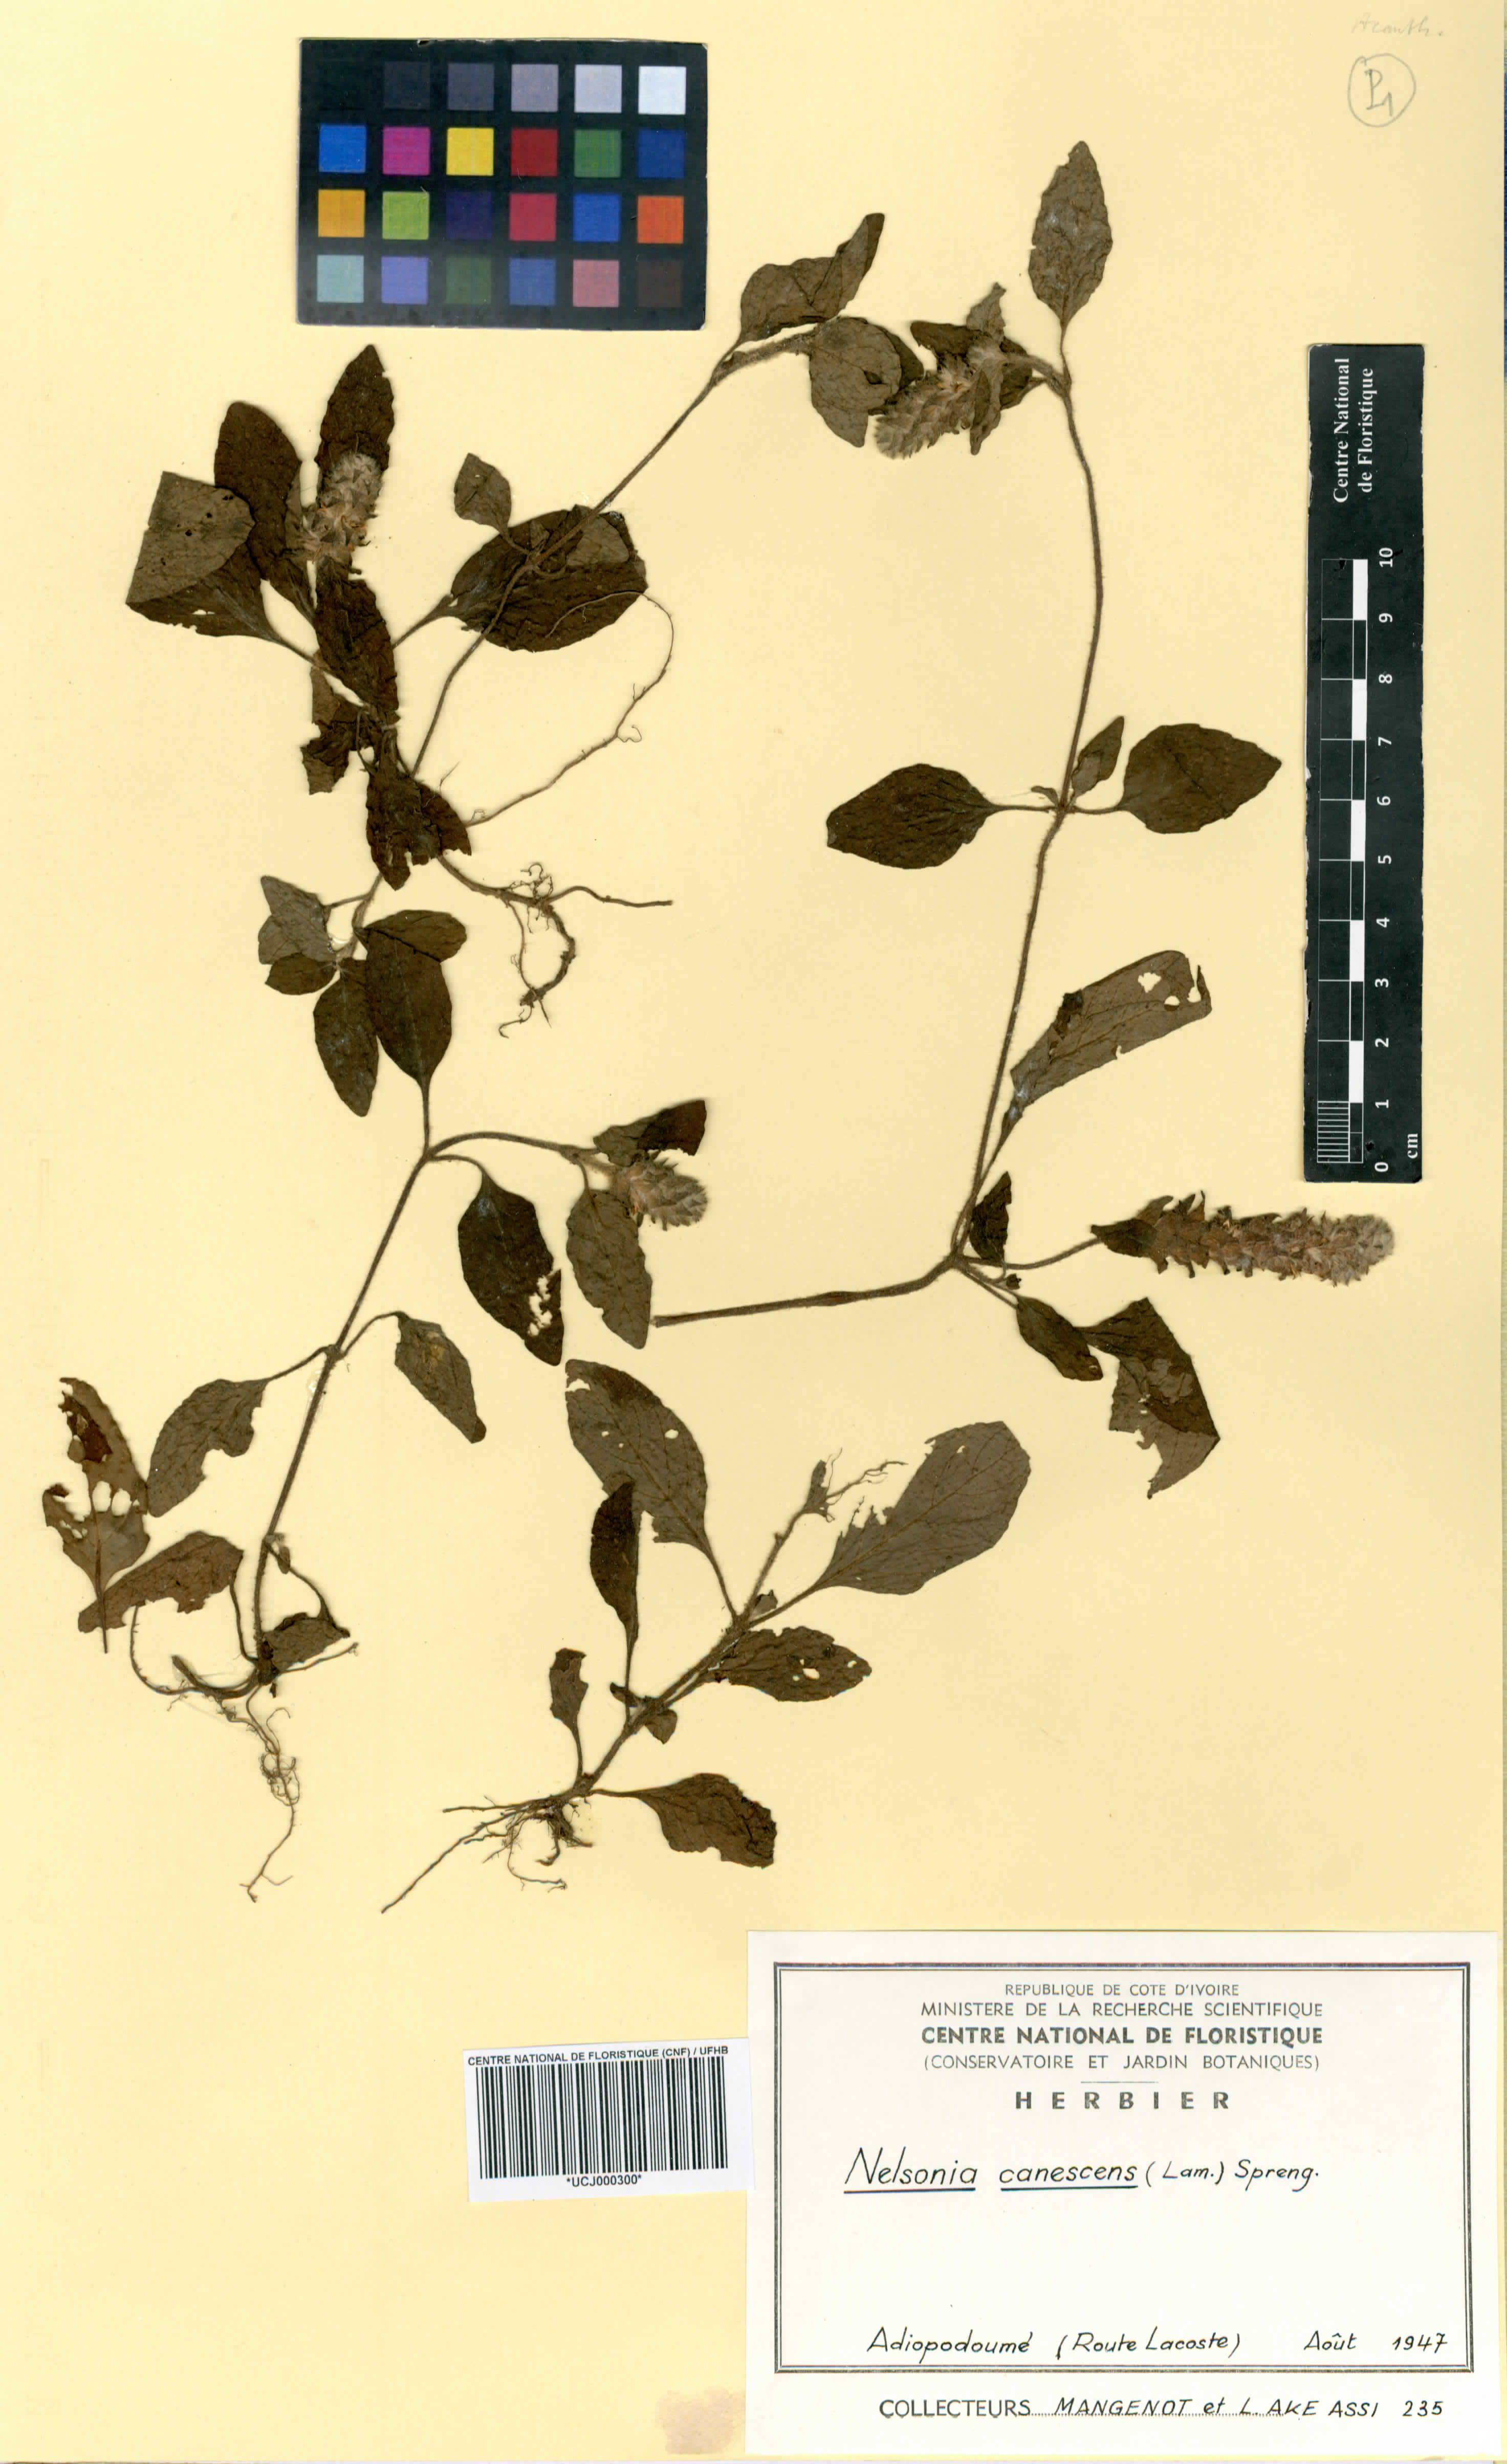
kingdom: Plantae
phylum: Tracheophyta
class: Magnoliopsida
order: Lamiales
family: Acanthaceae
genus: Nelsonia
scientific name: Nelsonia canescens
